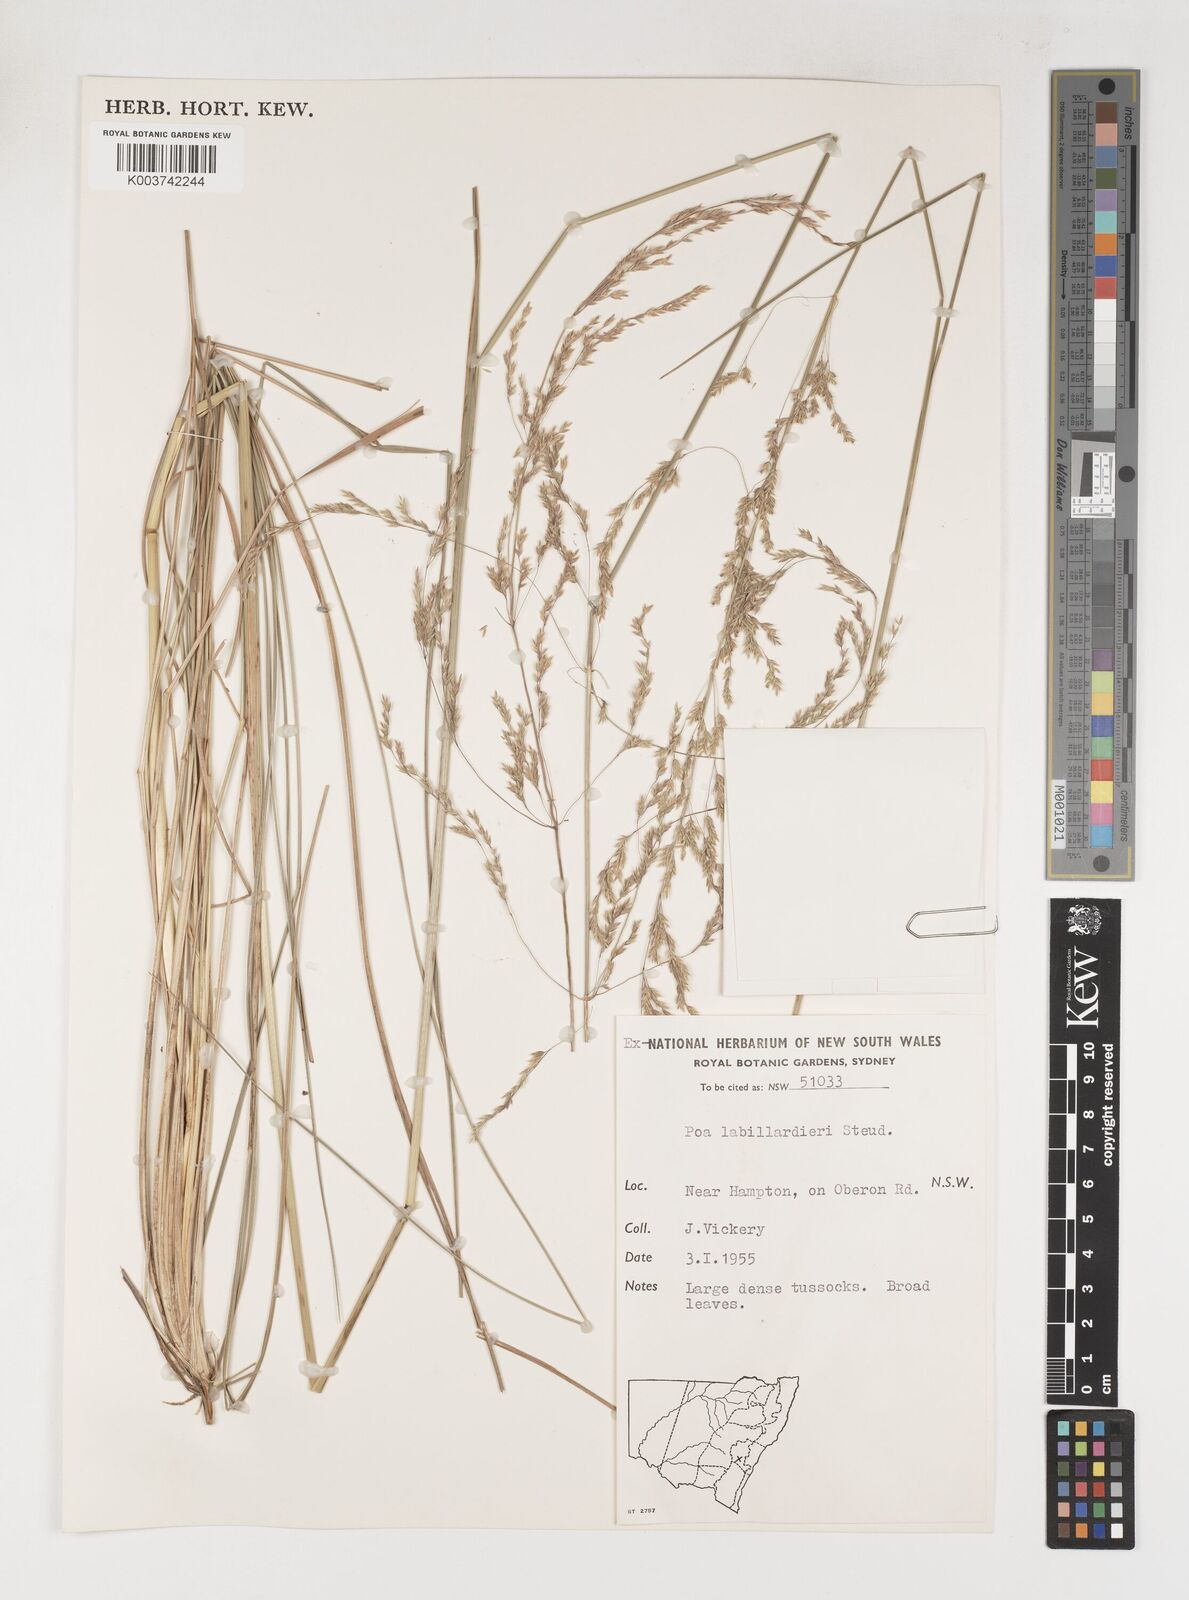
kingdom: Plantae
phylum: Tracheophyta
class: Liliopsida
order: Poales
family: Poaceae
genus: Poa
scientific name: Poa labillardierei
